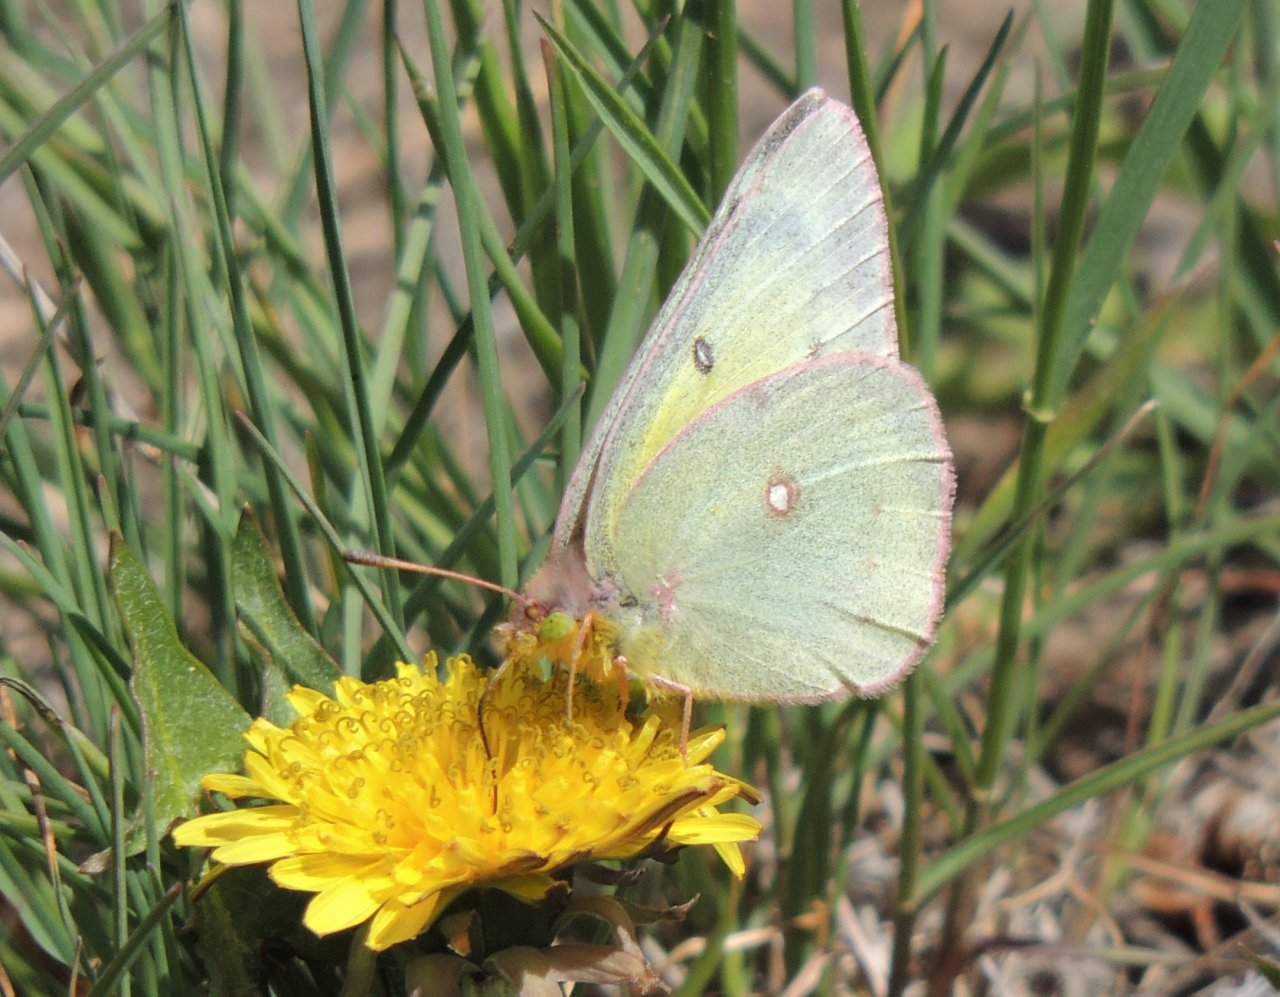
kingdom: Animalia
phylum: Arthropoda
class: Insecta
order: Lepidoptera
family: Pieridae
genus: Colias
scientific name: Colias eurytheme
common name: Orange Sulphur
